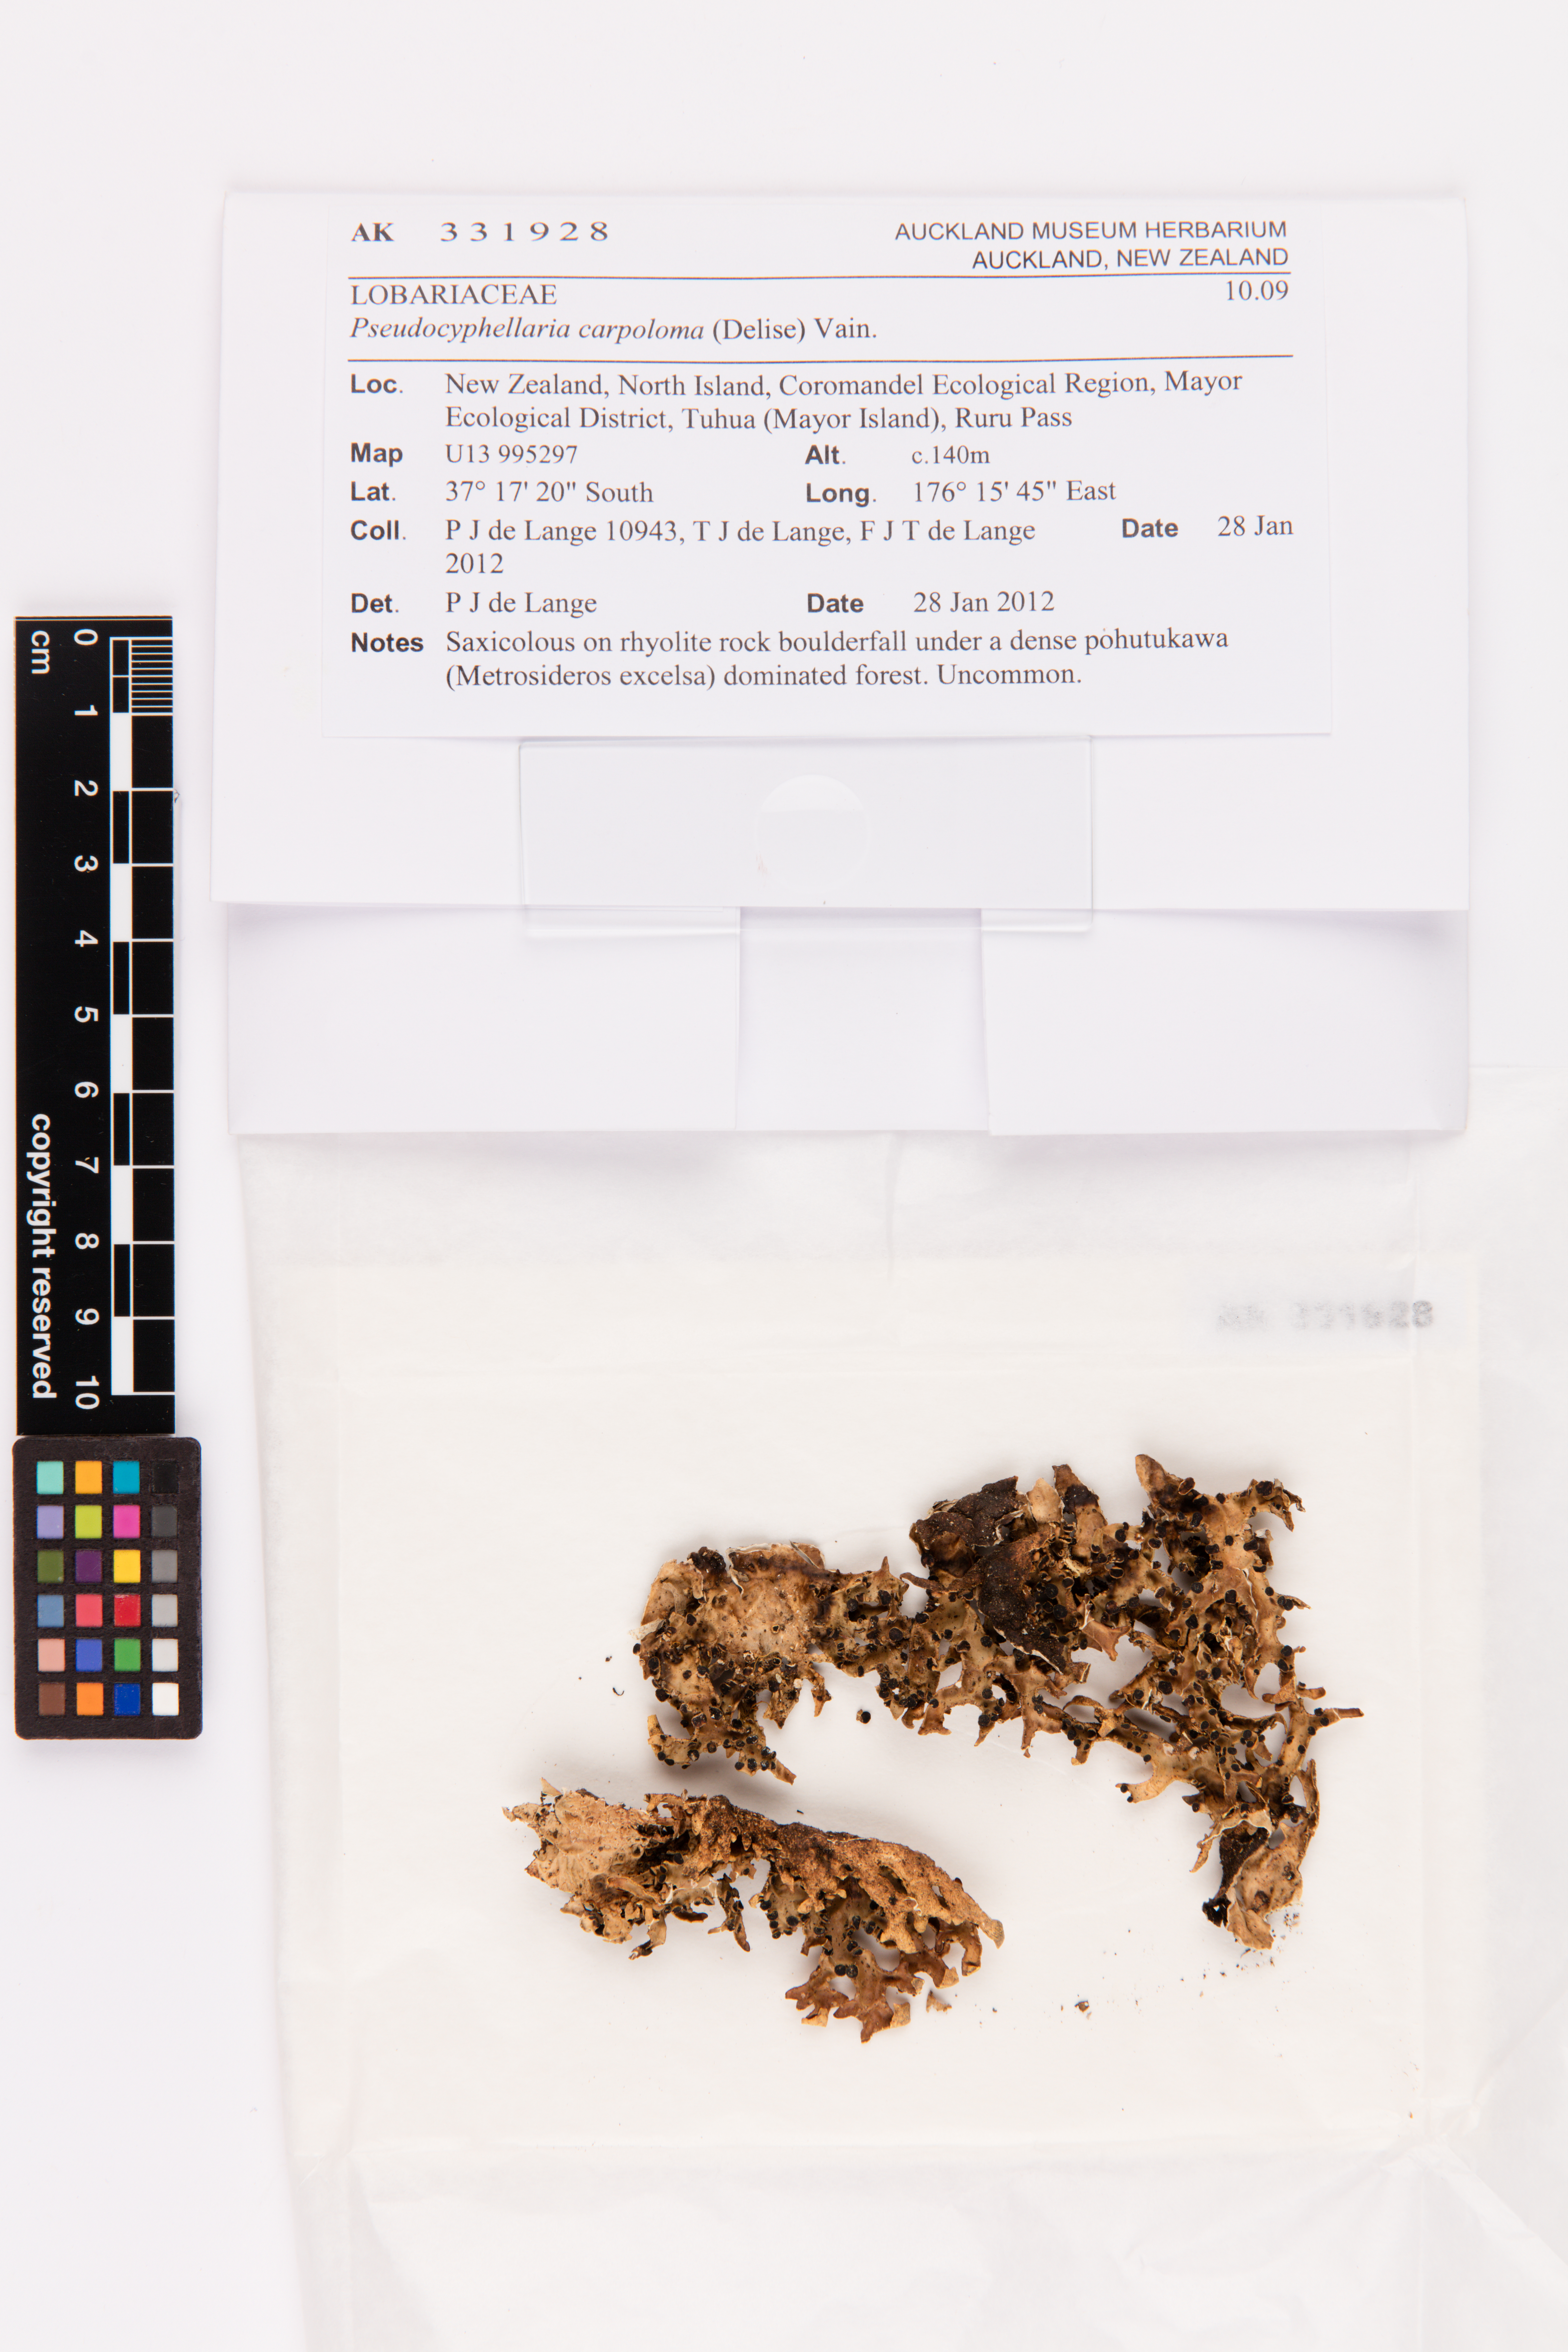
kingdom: Fungi
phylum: Ascomycota
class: Lecanoromycetes
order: Peltigerales
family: Lobariaceae
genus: Pseudocyphellaria
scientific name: Pseudocyphellaria carpoloma
